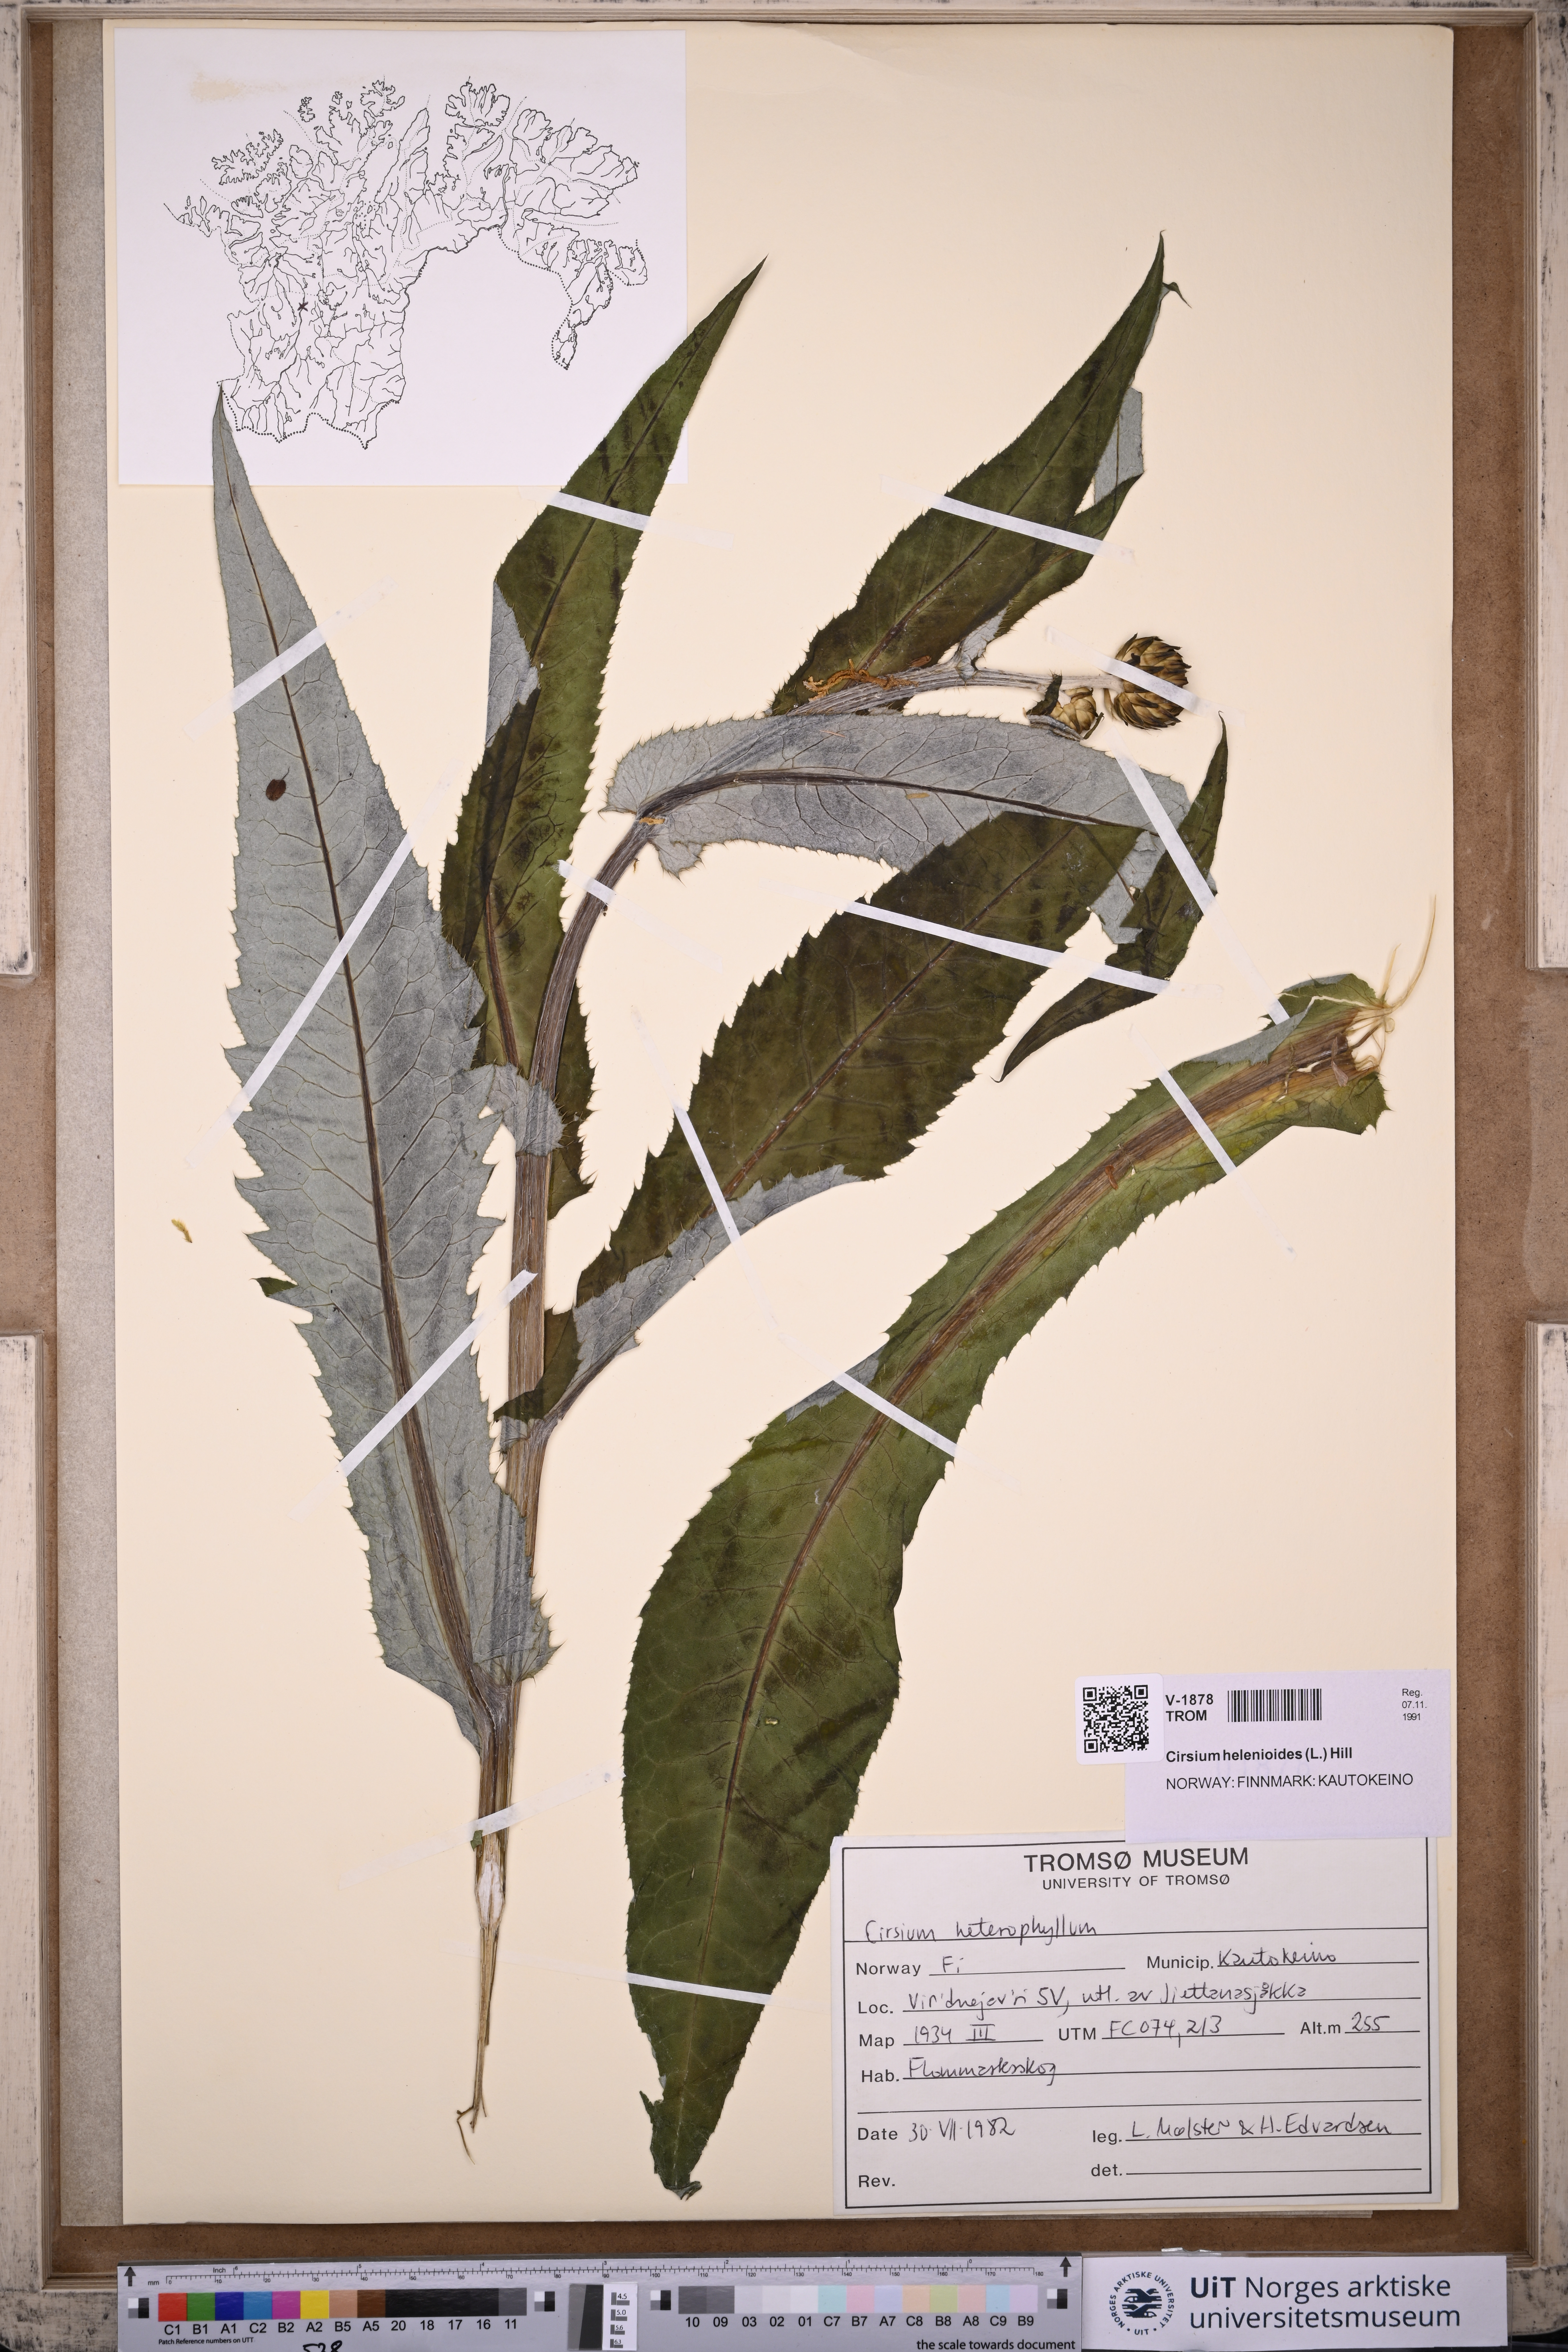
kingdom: Plantae
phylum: Tracheophyta
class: Magnoliopsida
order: Asterales
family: Asteraceae
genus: Cirsium
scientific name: Cirsium heterophyllum
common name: Melancholy thistle
